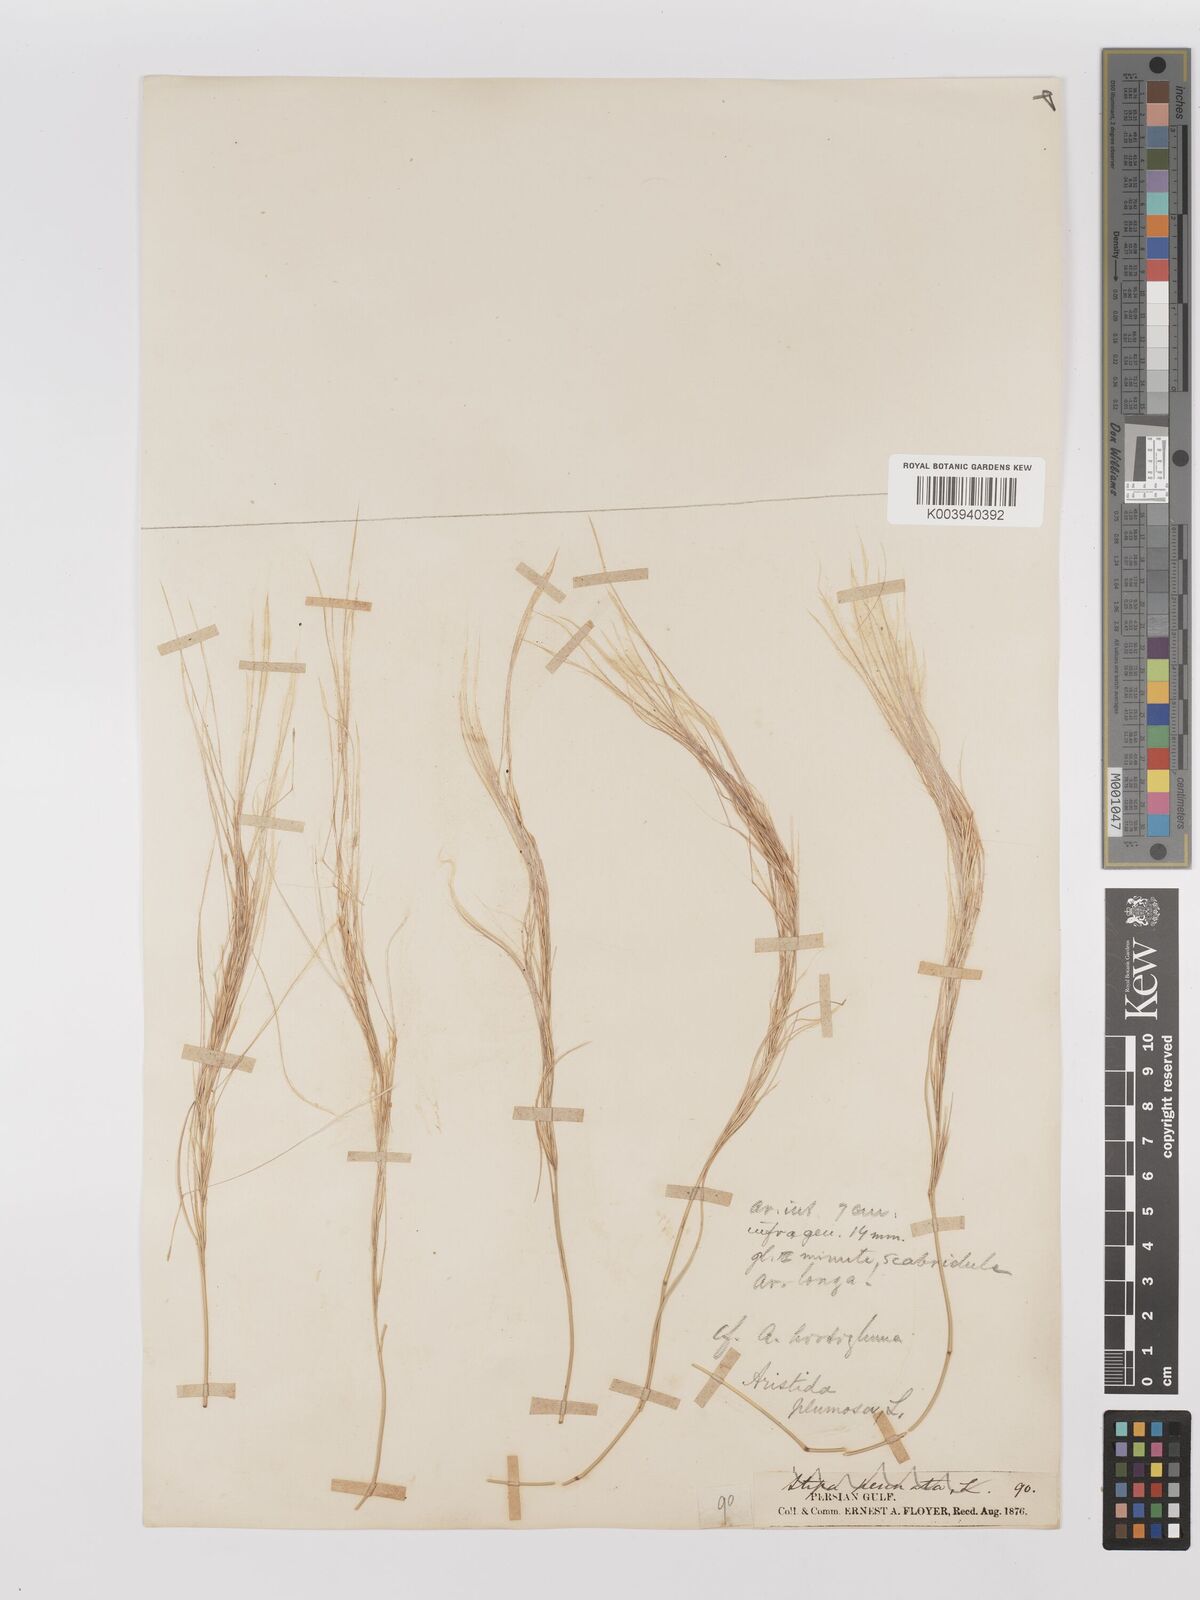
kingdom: Plantae
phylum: Tracheophyta
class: Liliopsida
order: Poales
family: Poaceae
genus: Stipagrostis
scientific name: Stipagrostis paradisea
